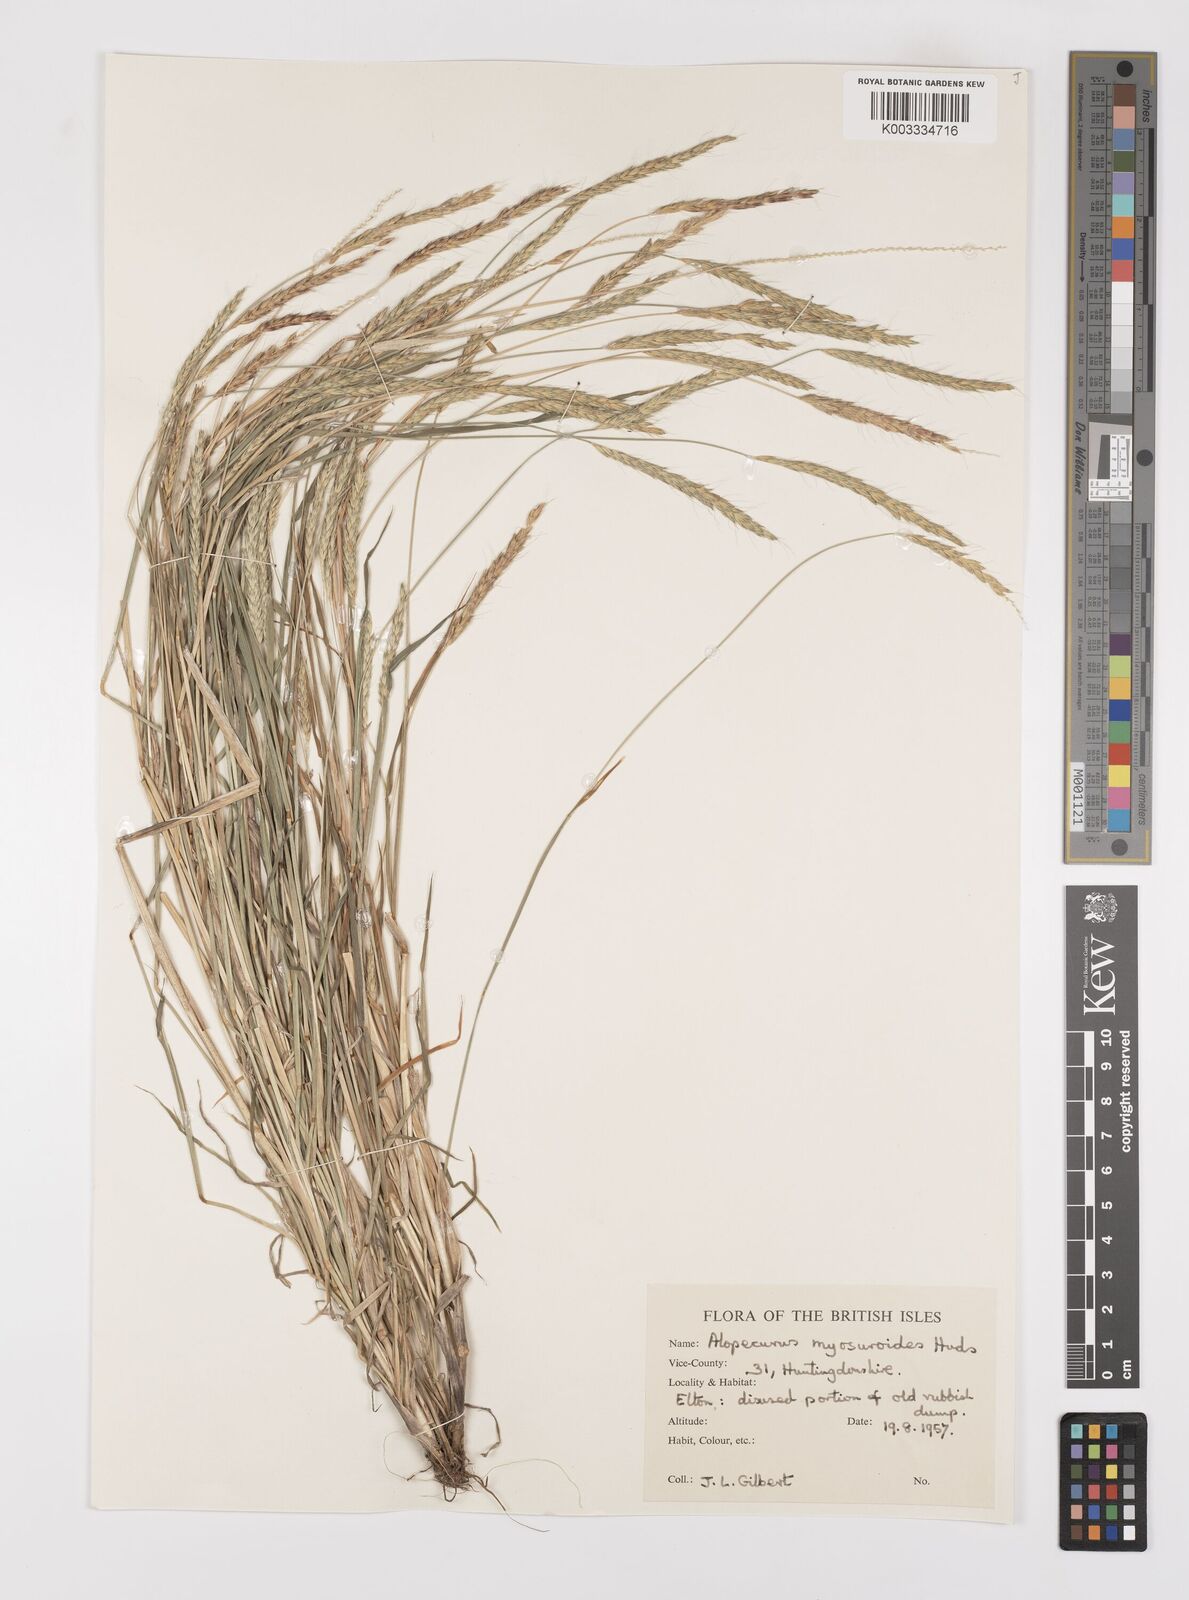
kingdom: Plantae
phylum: Tracheophyta
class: Liliopsida
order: Poales
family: Poaceae
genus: Alopecurus
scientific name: Alopecurus myosuroides
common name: Black-grass
